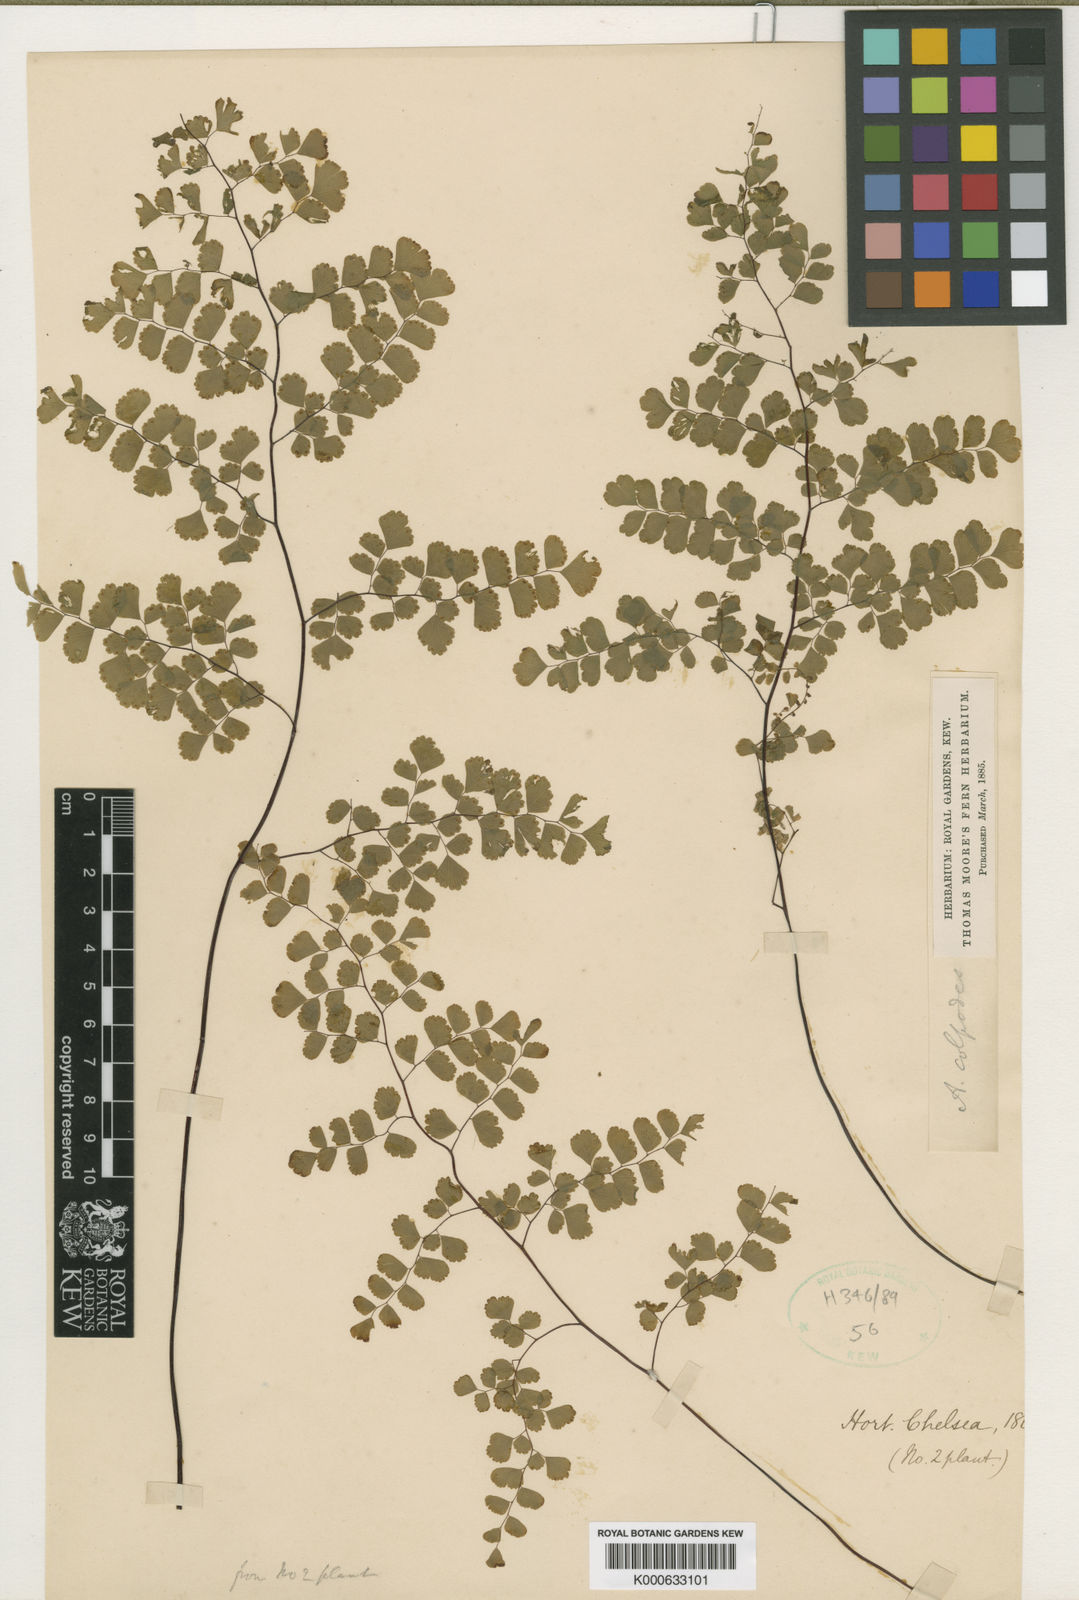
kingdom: Plantae
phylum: Tracheophyta
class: Polypodiopsida
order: Polypodiales
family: Pteridaceae
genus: Adiantum
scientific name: Adiantum raddianum
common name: Delta maidenhair fern
